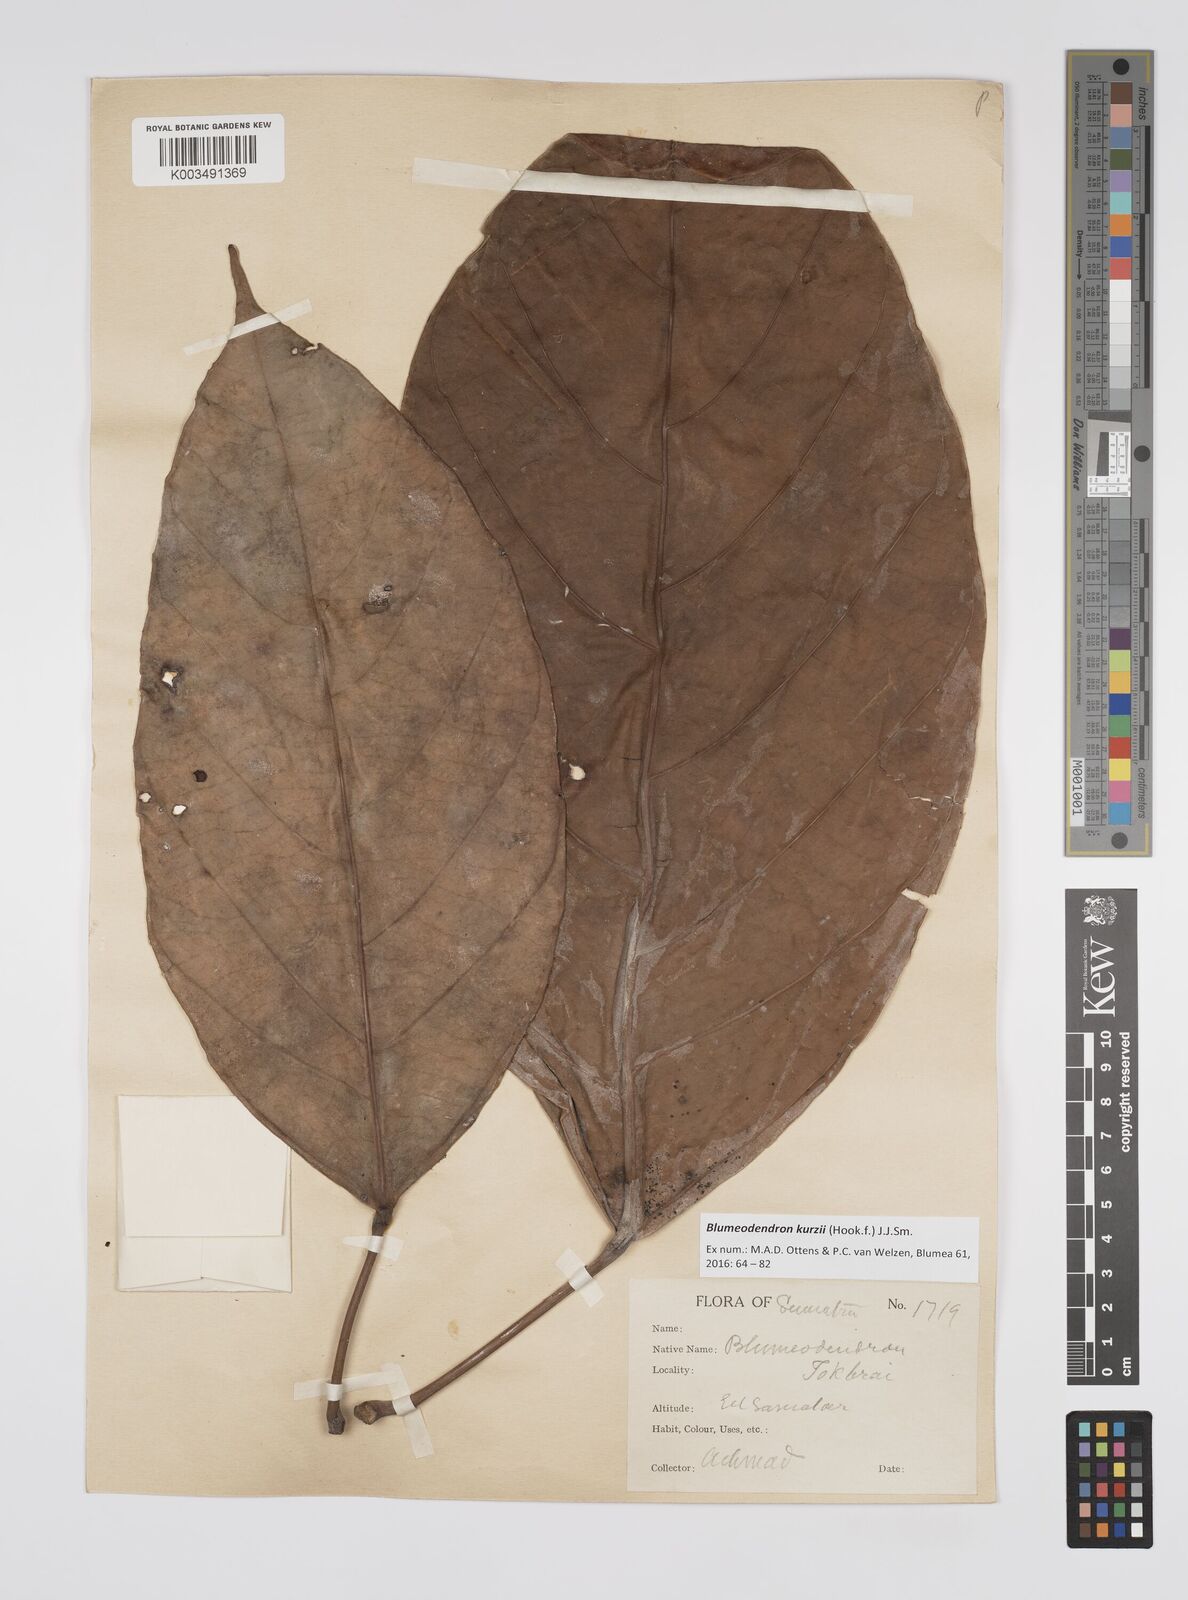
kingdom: Plantae
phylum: Tracheophyta
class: Magnoliopsida
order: Malpighiales
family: Euphorbiaceae
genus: Blumeodendron
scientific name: Blumeodendron kurzii
